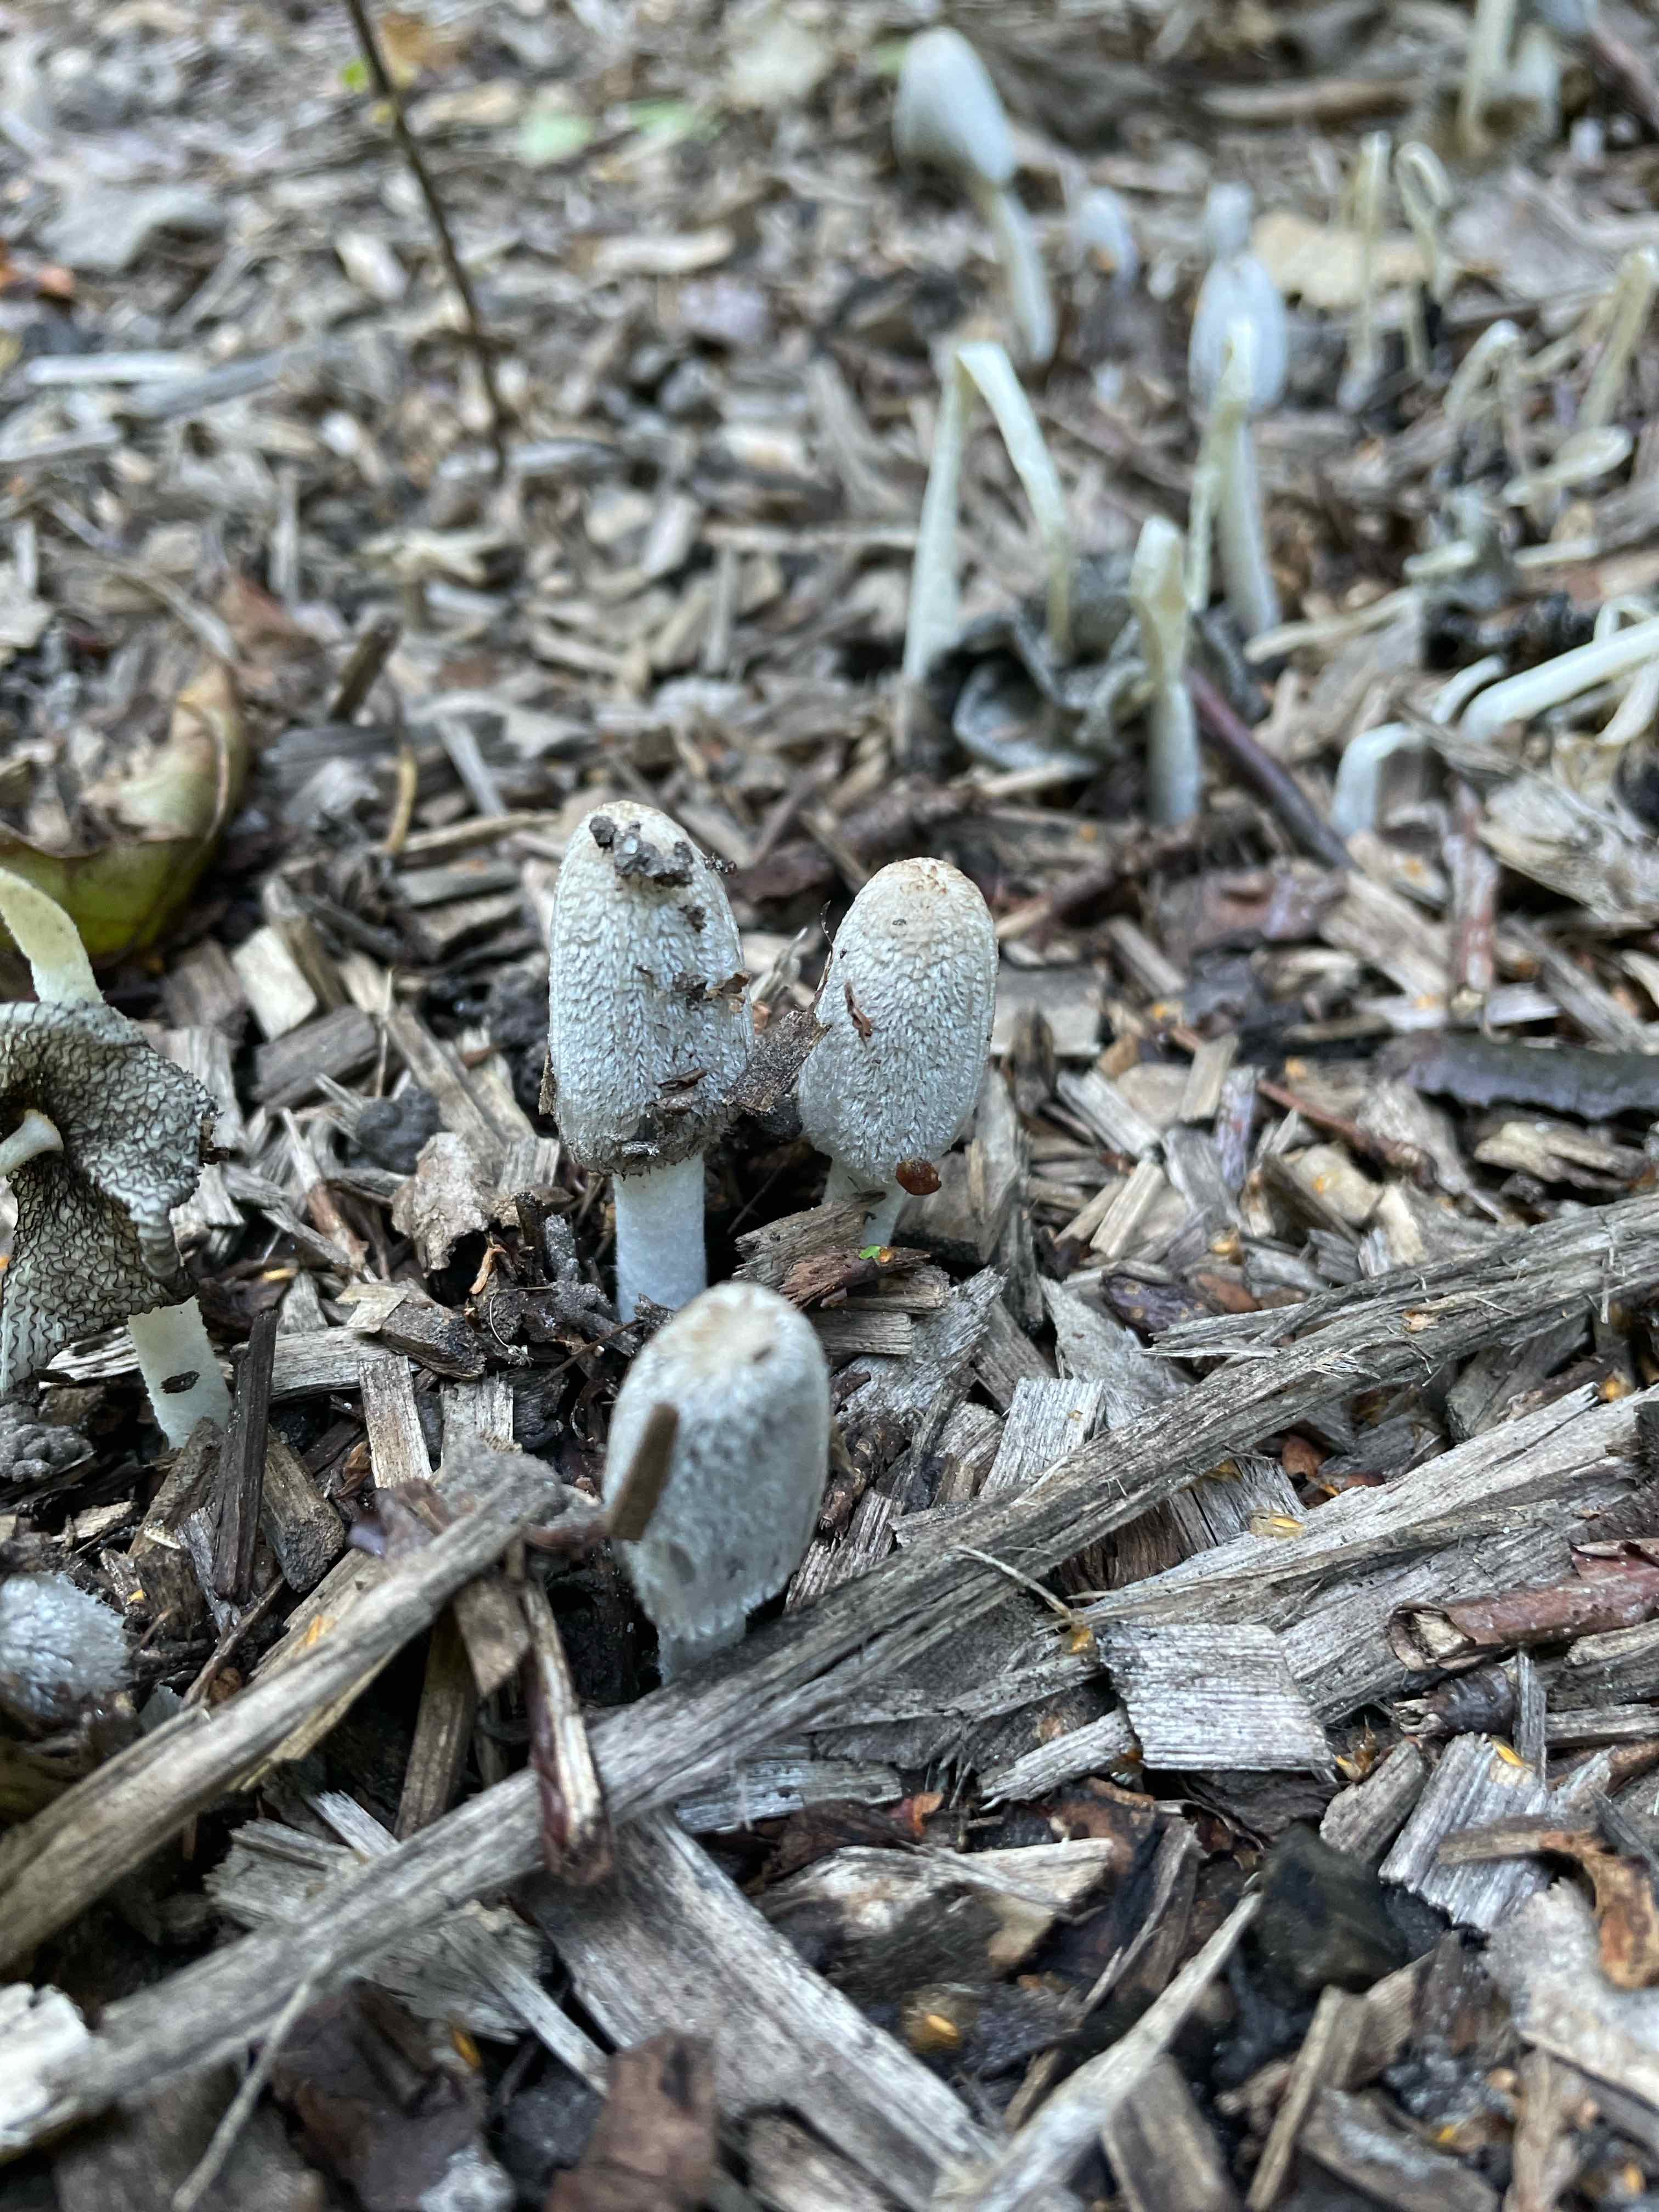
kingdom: Fungi
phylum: Basidiomycota
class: Agaricomycetes
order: Agaricales
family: Psathyrellaceae
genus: Coprinopsis
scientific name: Coprinopsis lagopus
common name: dunstokket blækhat
